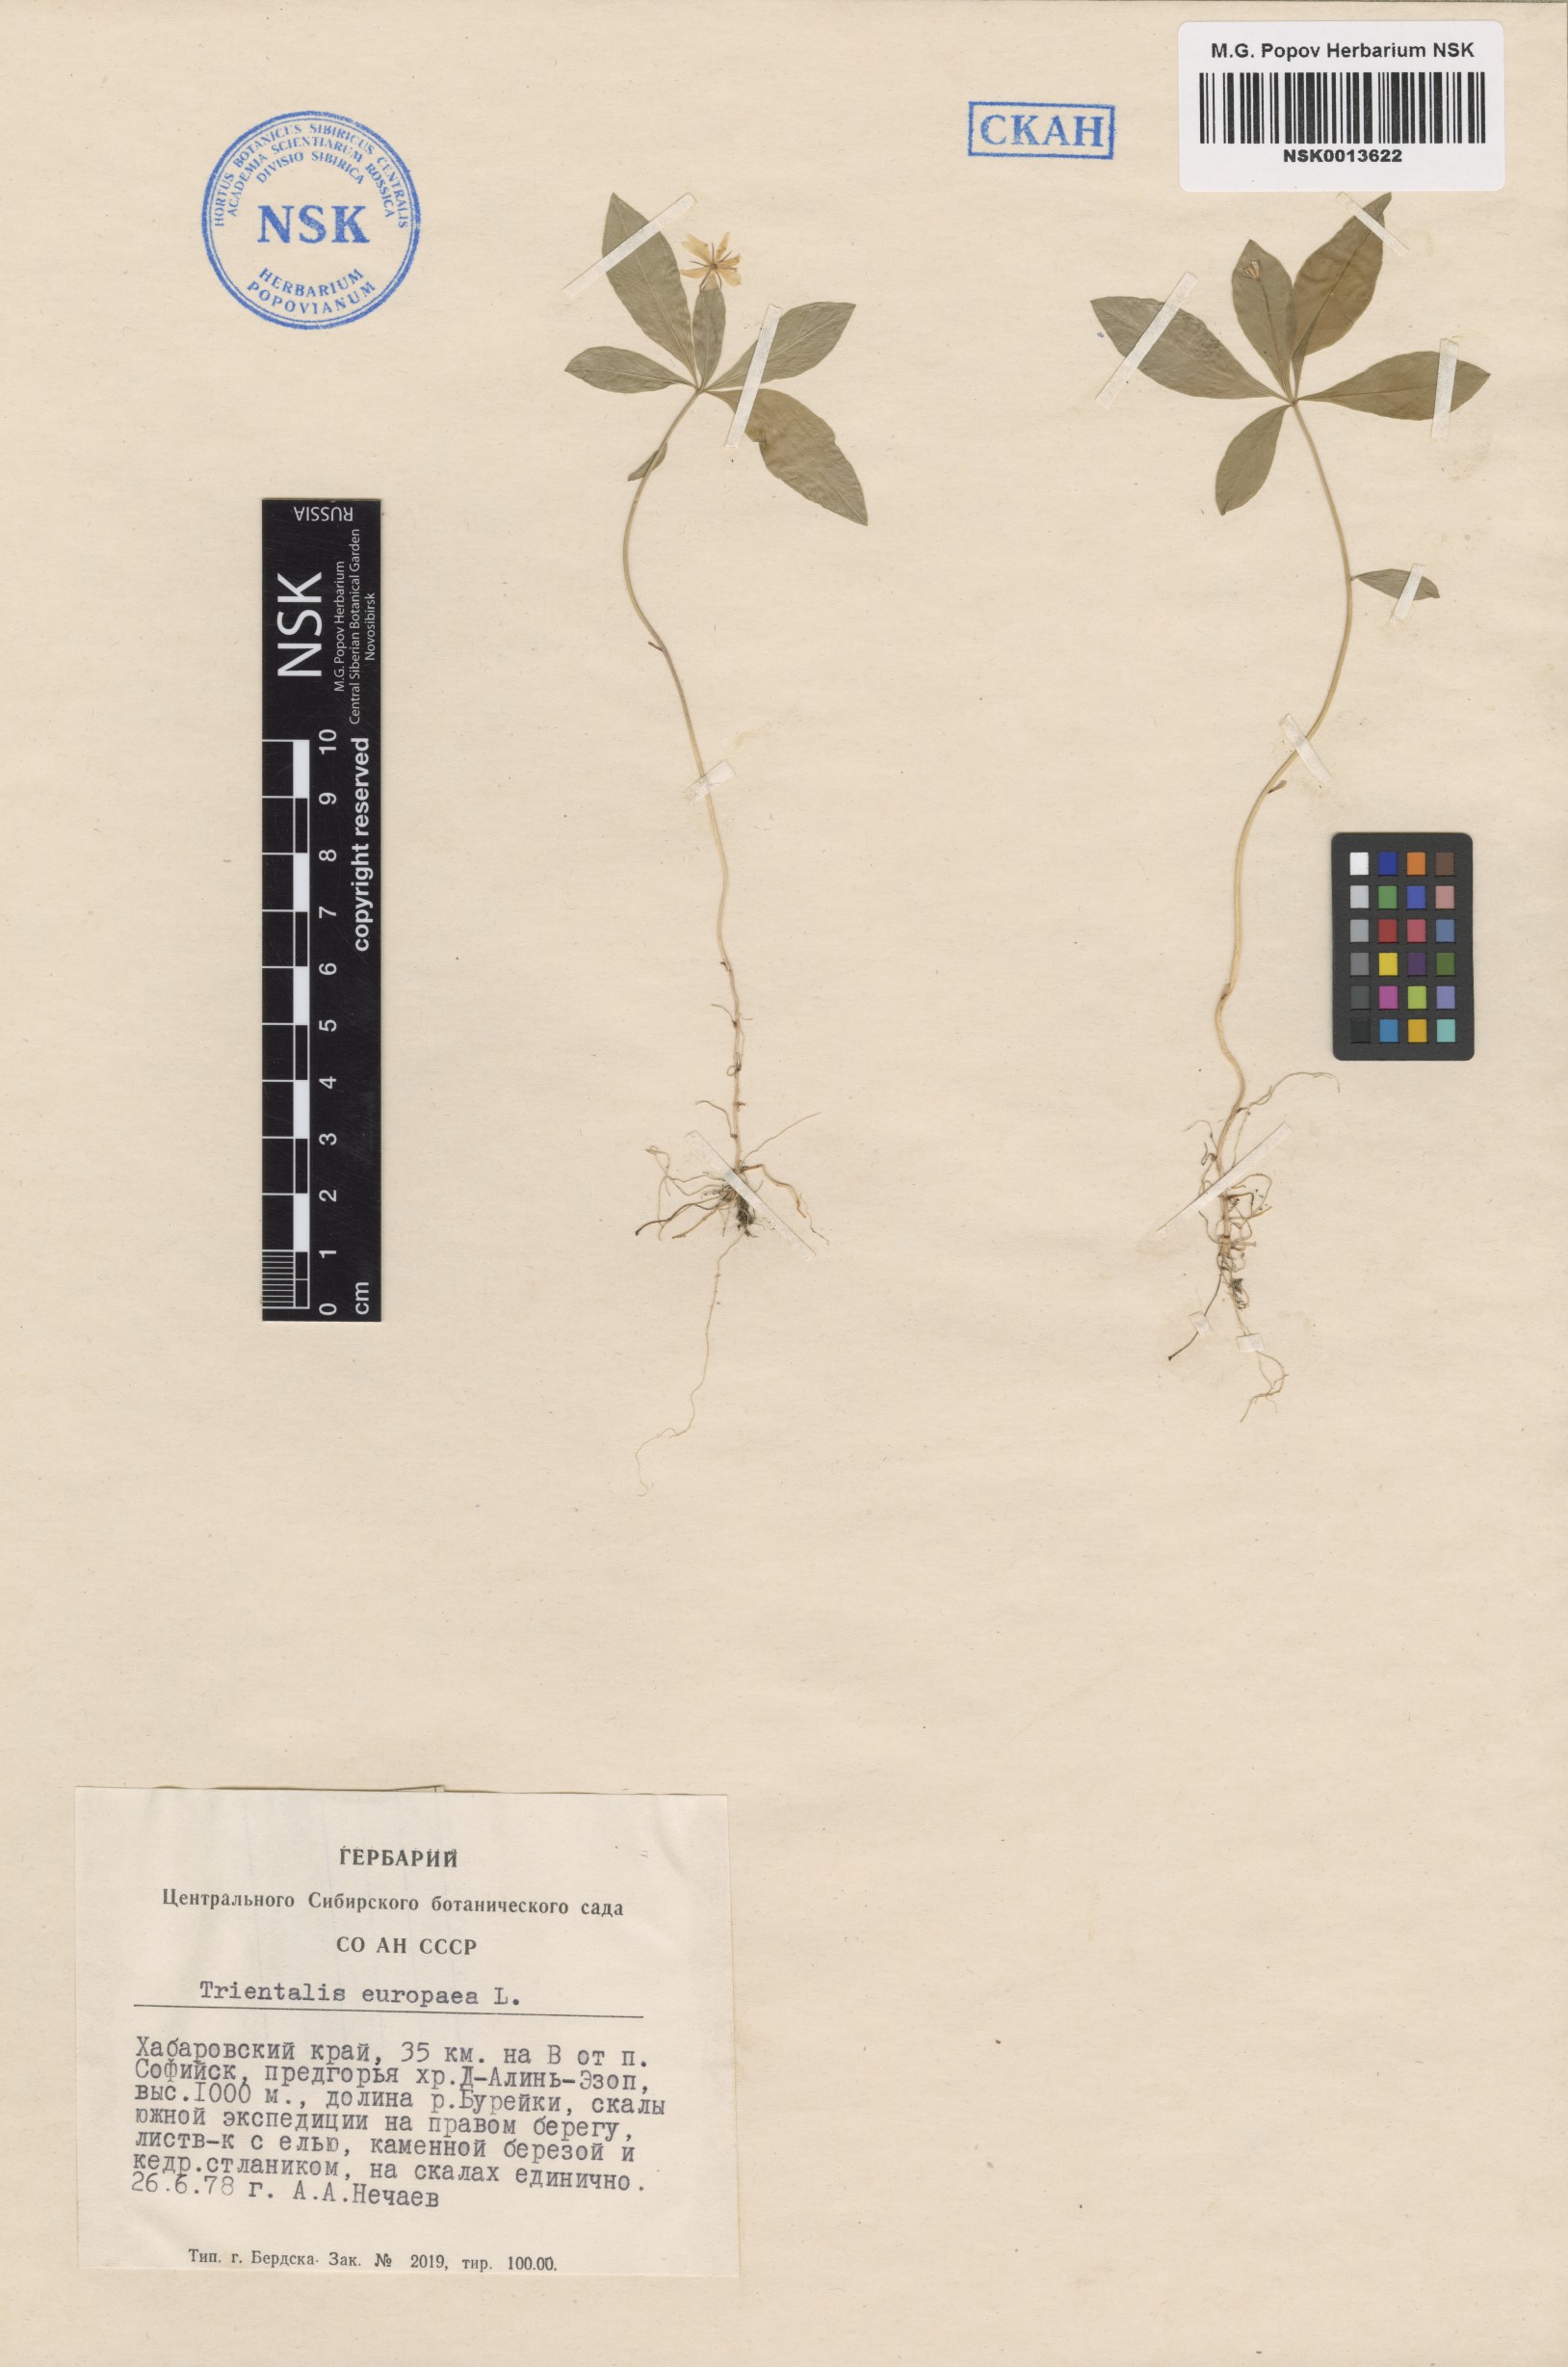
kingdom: Plantae
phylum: Tracheophyta
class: Magnoliopsida
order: Ericales
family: Primulaceae
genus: Lysimachia
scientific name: Lysimachia europaea
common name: Arctic starflower
